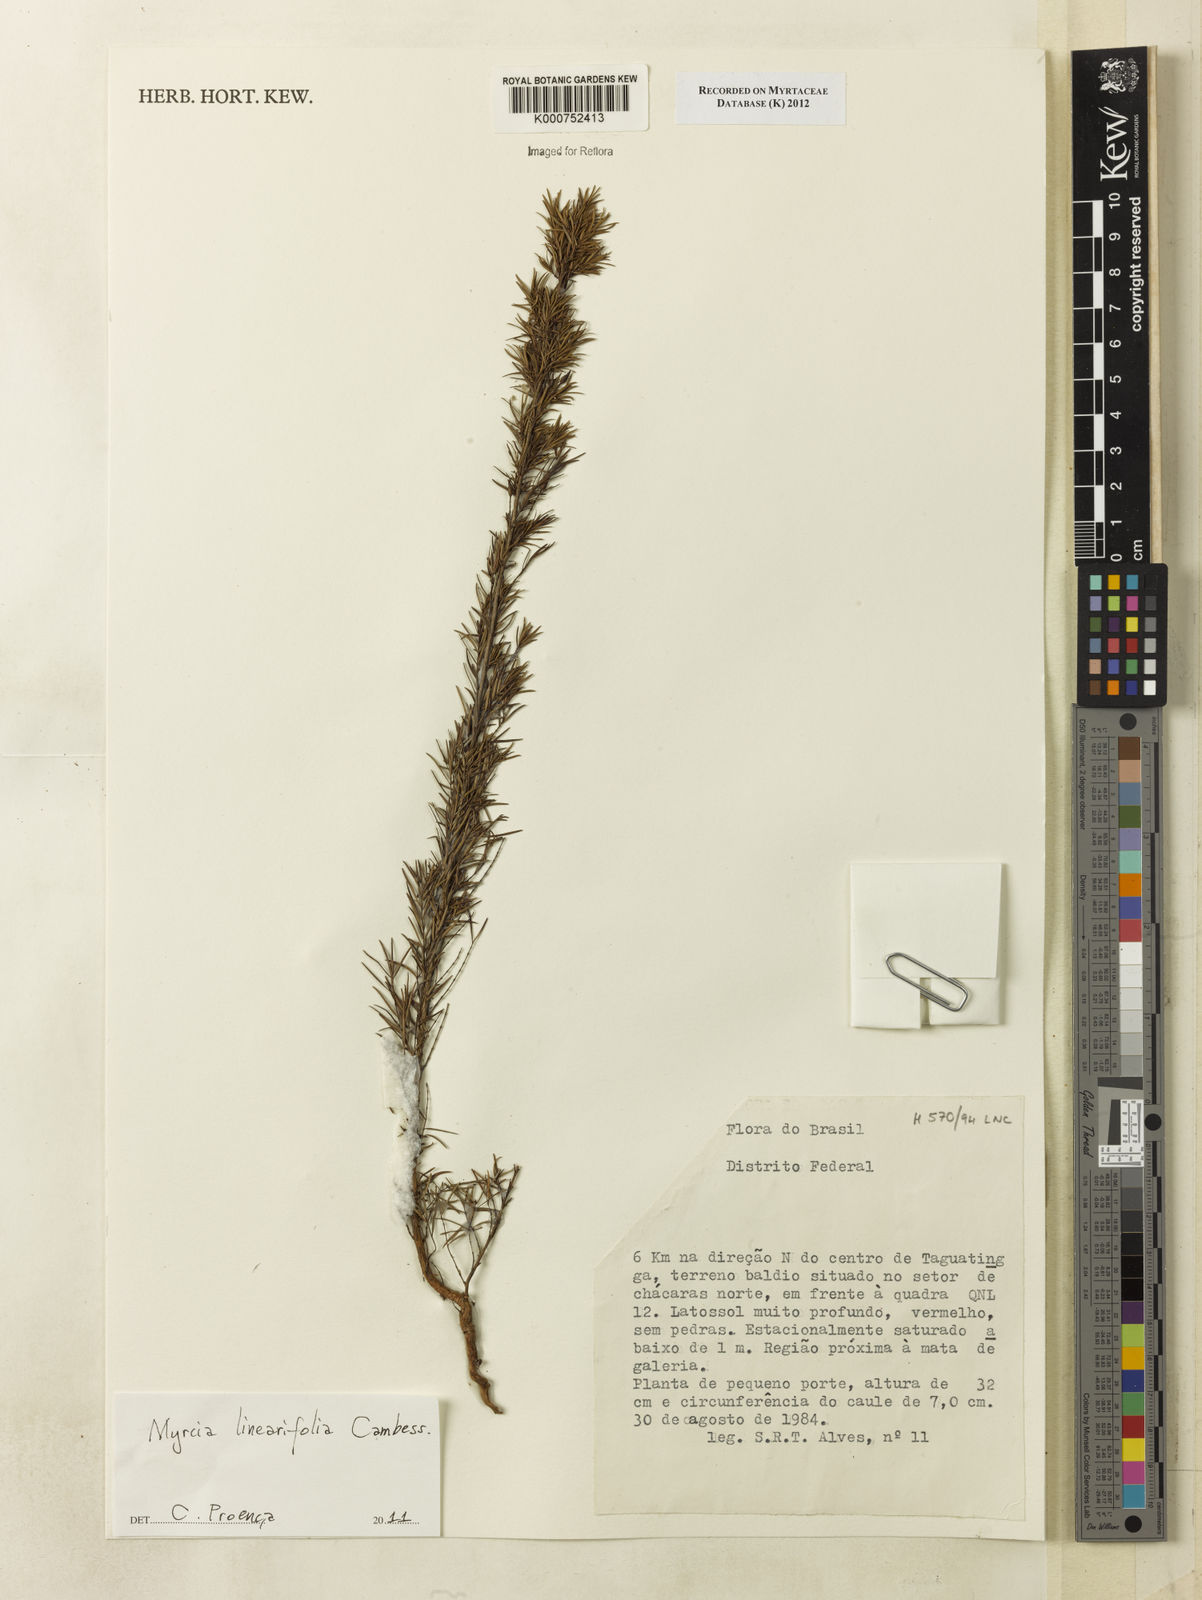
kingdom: Plantae
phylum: Tracheophyta
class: Magnoliopsida
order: Myrtales
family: Myrtaceae
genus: Myrcia
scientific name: Myrcia linearifolia
